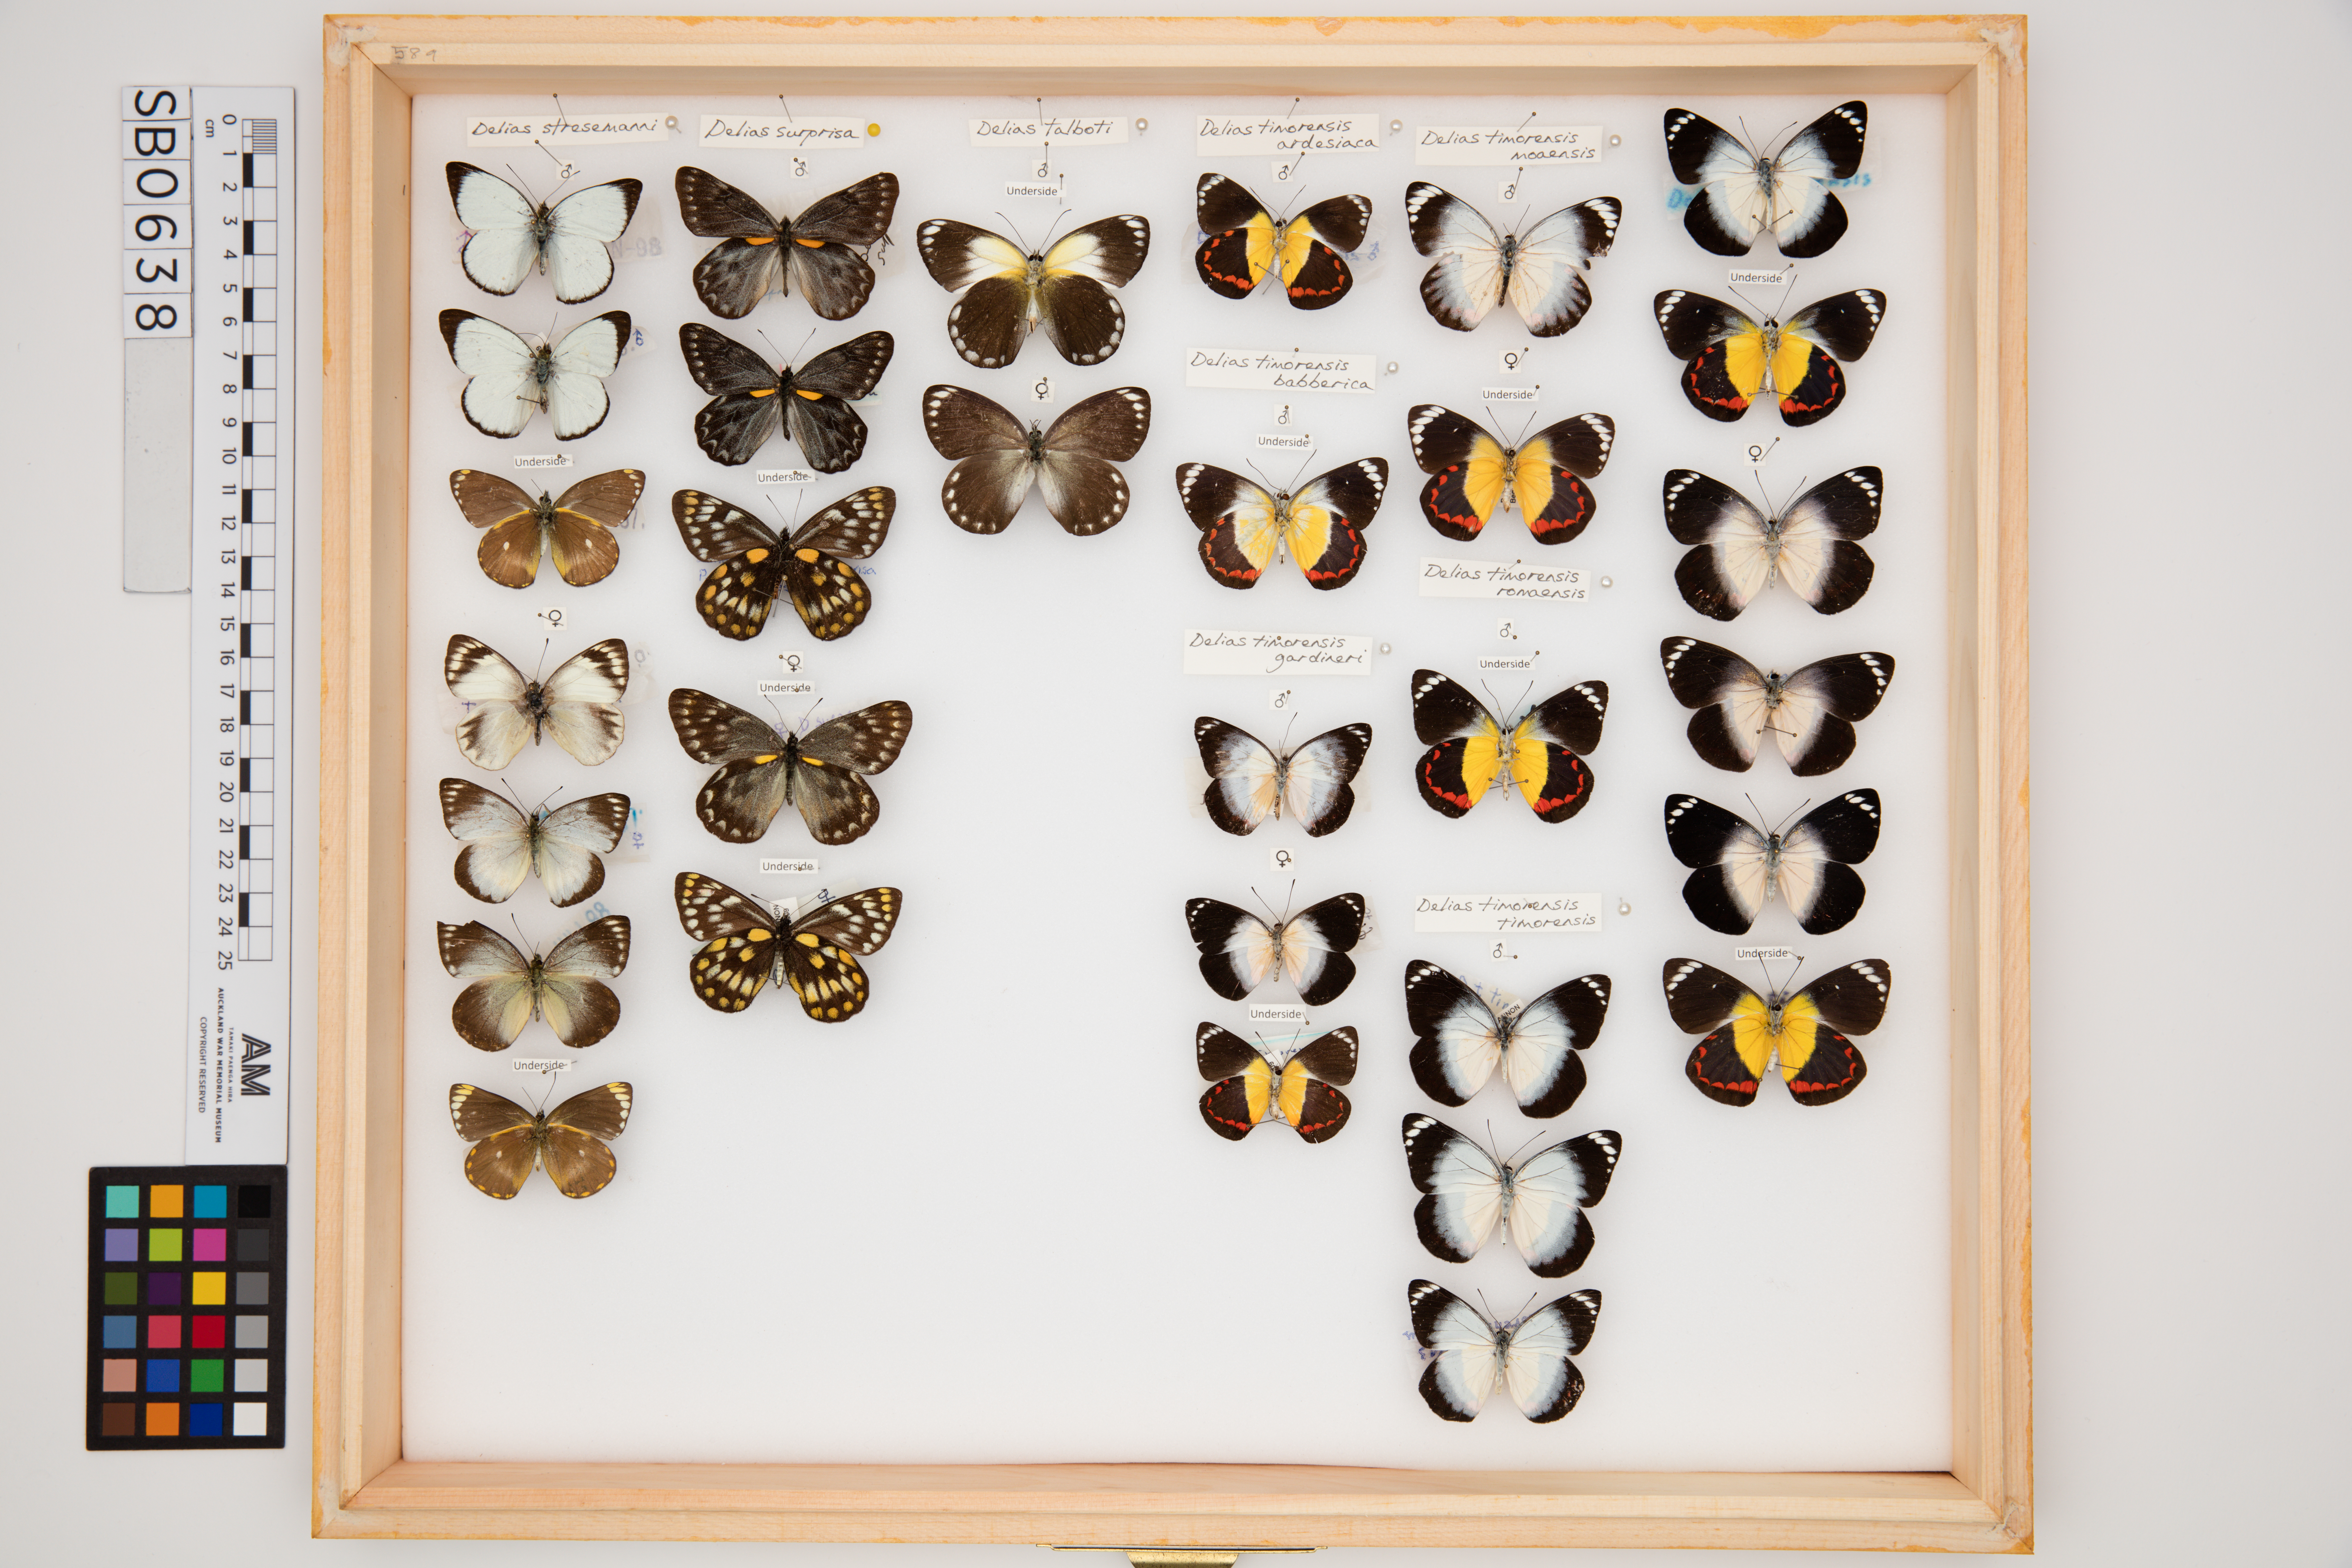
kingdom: Animalia
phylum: Arthropoda
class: Insecta
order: Lepidoptera
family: Pieridae
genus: Delias
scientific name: Delias stresemanni
